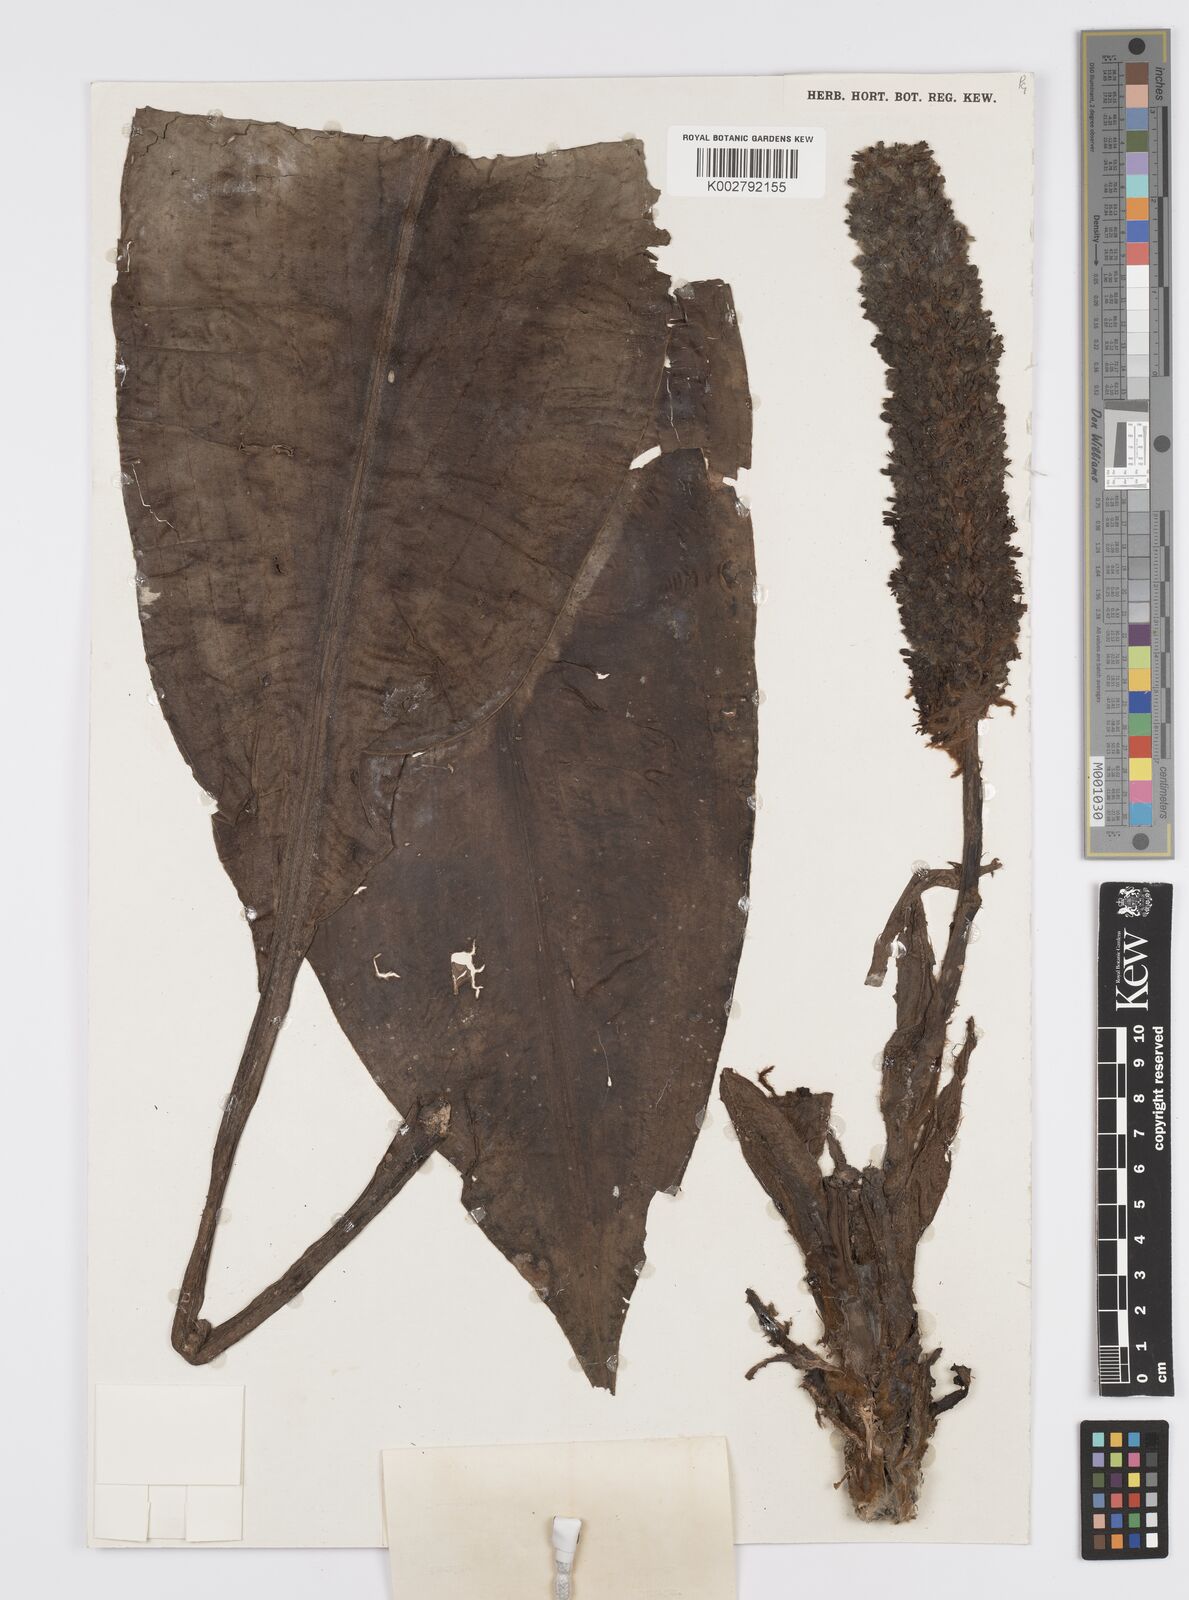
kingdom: Plantae
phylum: Tracheophyta
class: Liliopsida
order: Commelinales
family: Commelinaceae
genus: Palisota
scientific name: Palisota mannii
